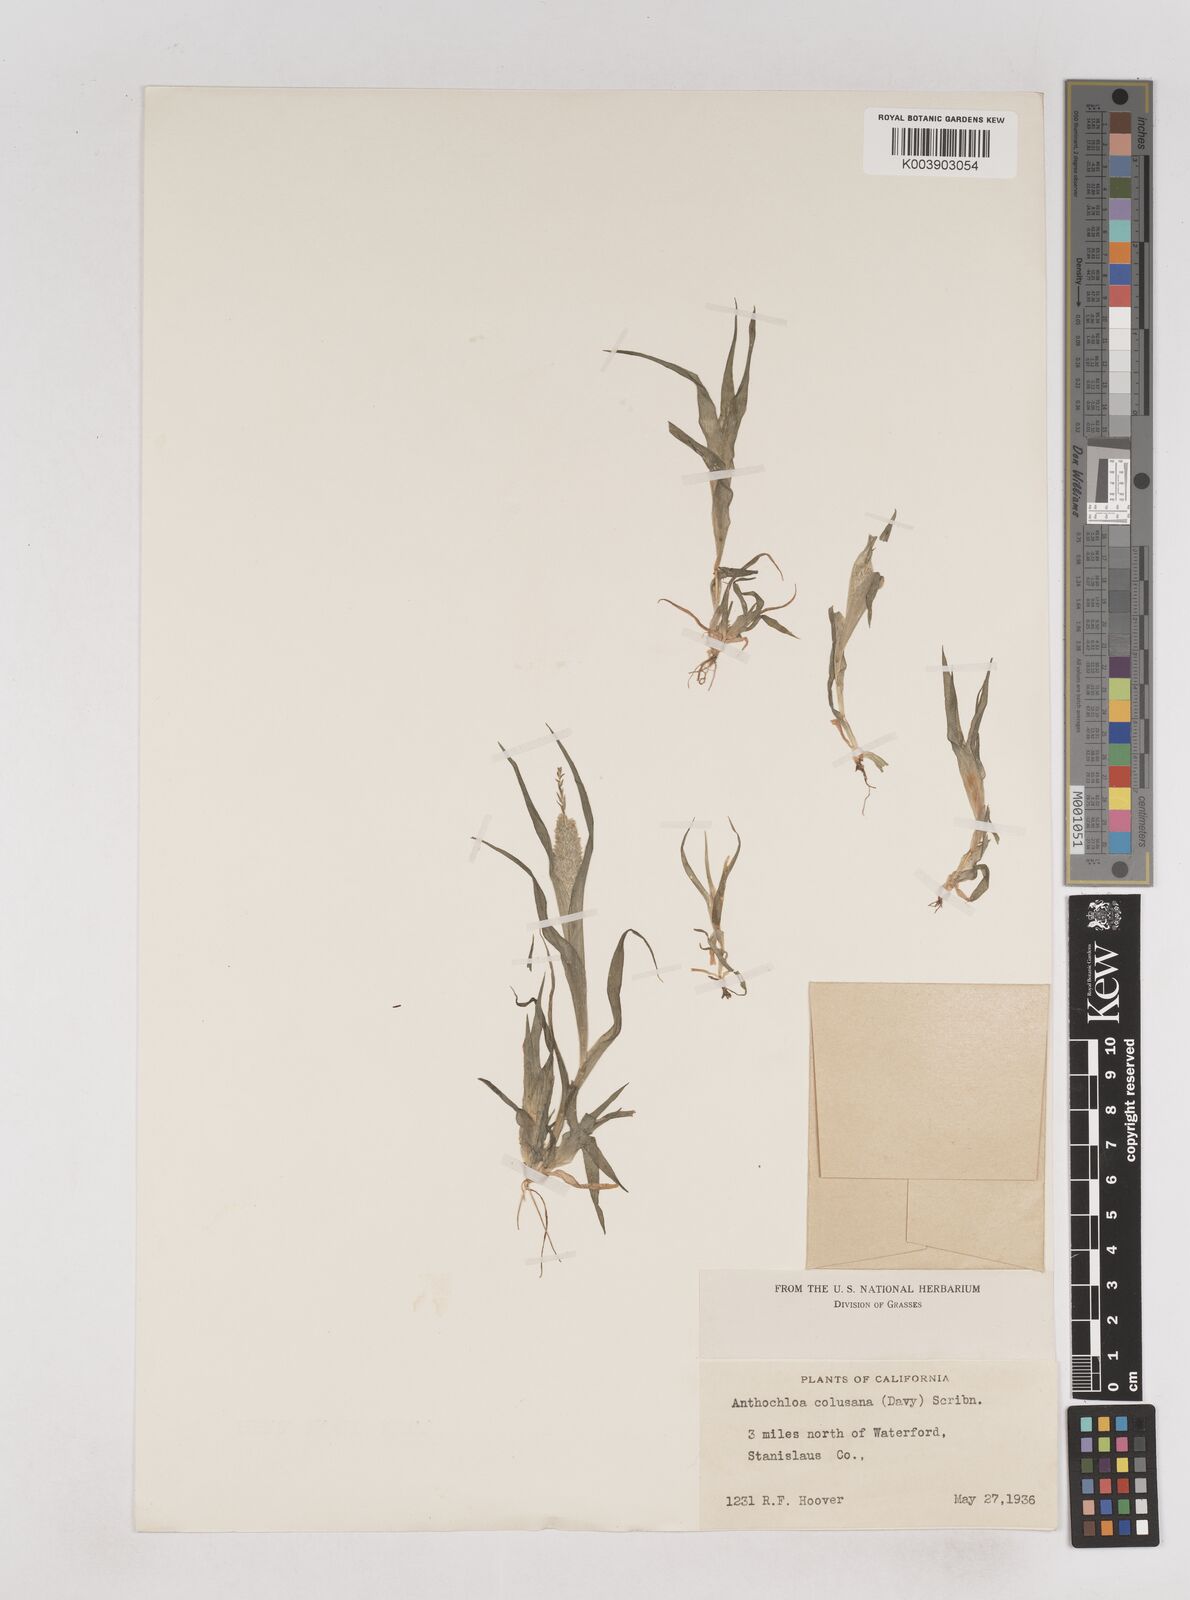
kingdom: Plantae
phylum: Tracheophyta
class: Liliopsida
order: Poales
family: Poaceae
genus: Neostapfia
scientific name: Neostapfia colusana
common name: Colusa grass
